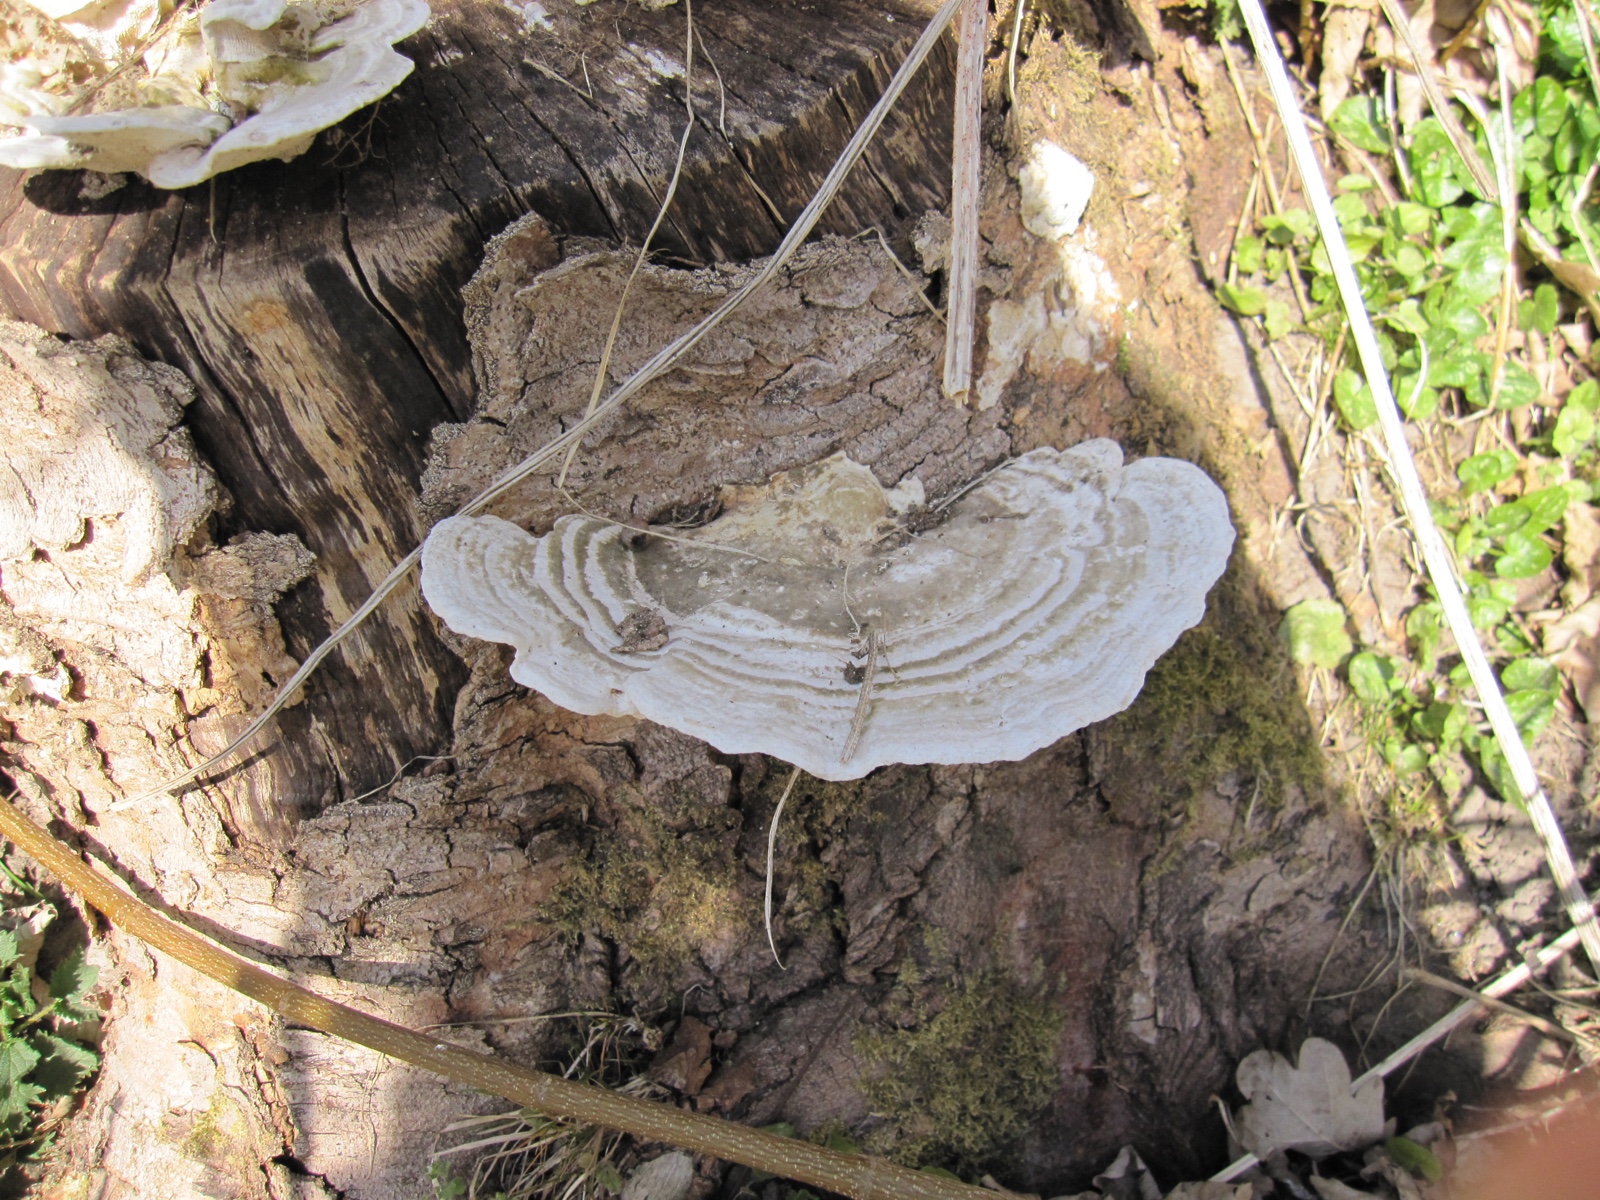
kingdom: Fungi
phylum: Basidiomycota
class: Agaricomycetes
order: Polyporales
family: Polyporaceae
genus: Trametes
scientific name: Trametes gibbosa
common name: puklet læderporesvamp
